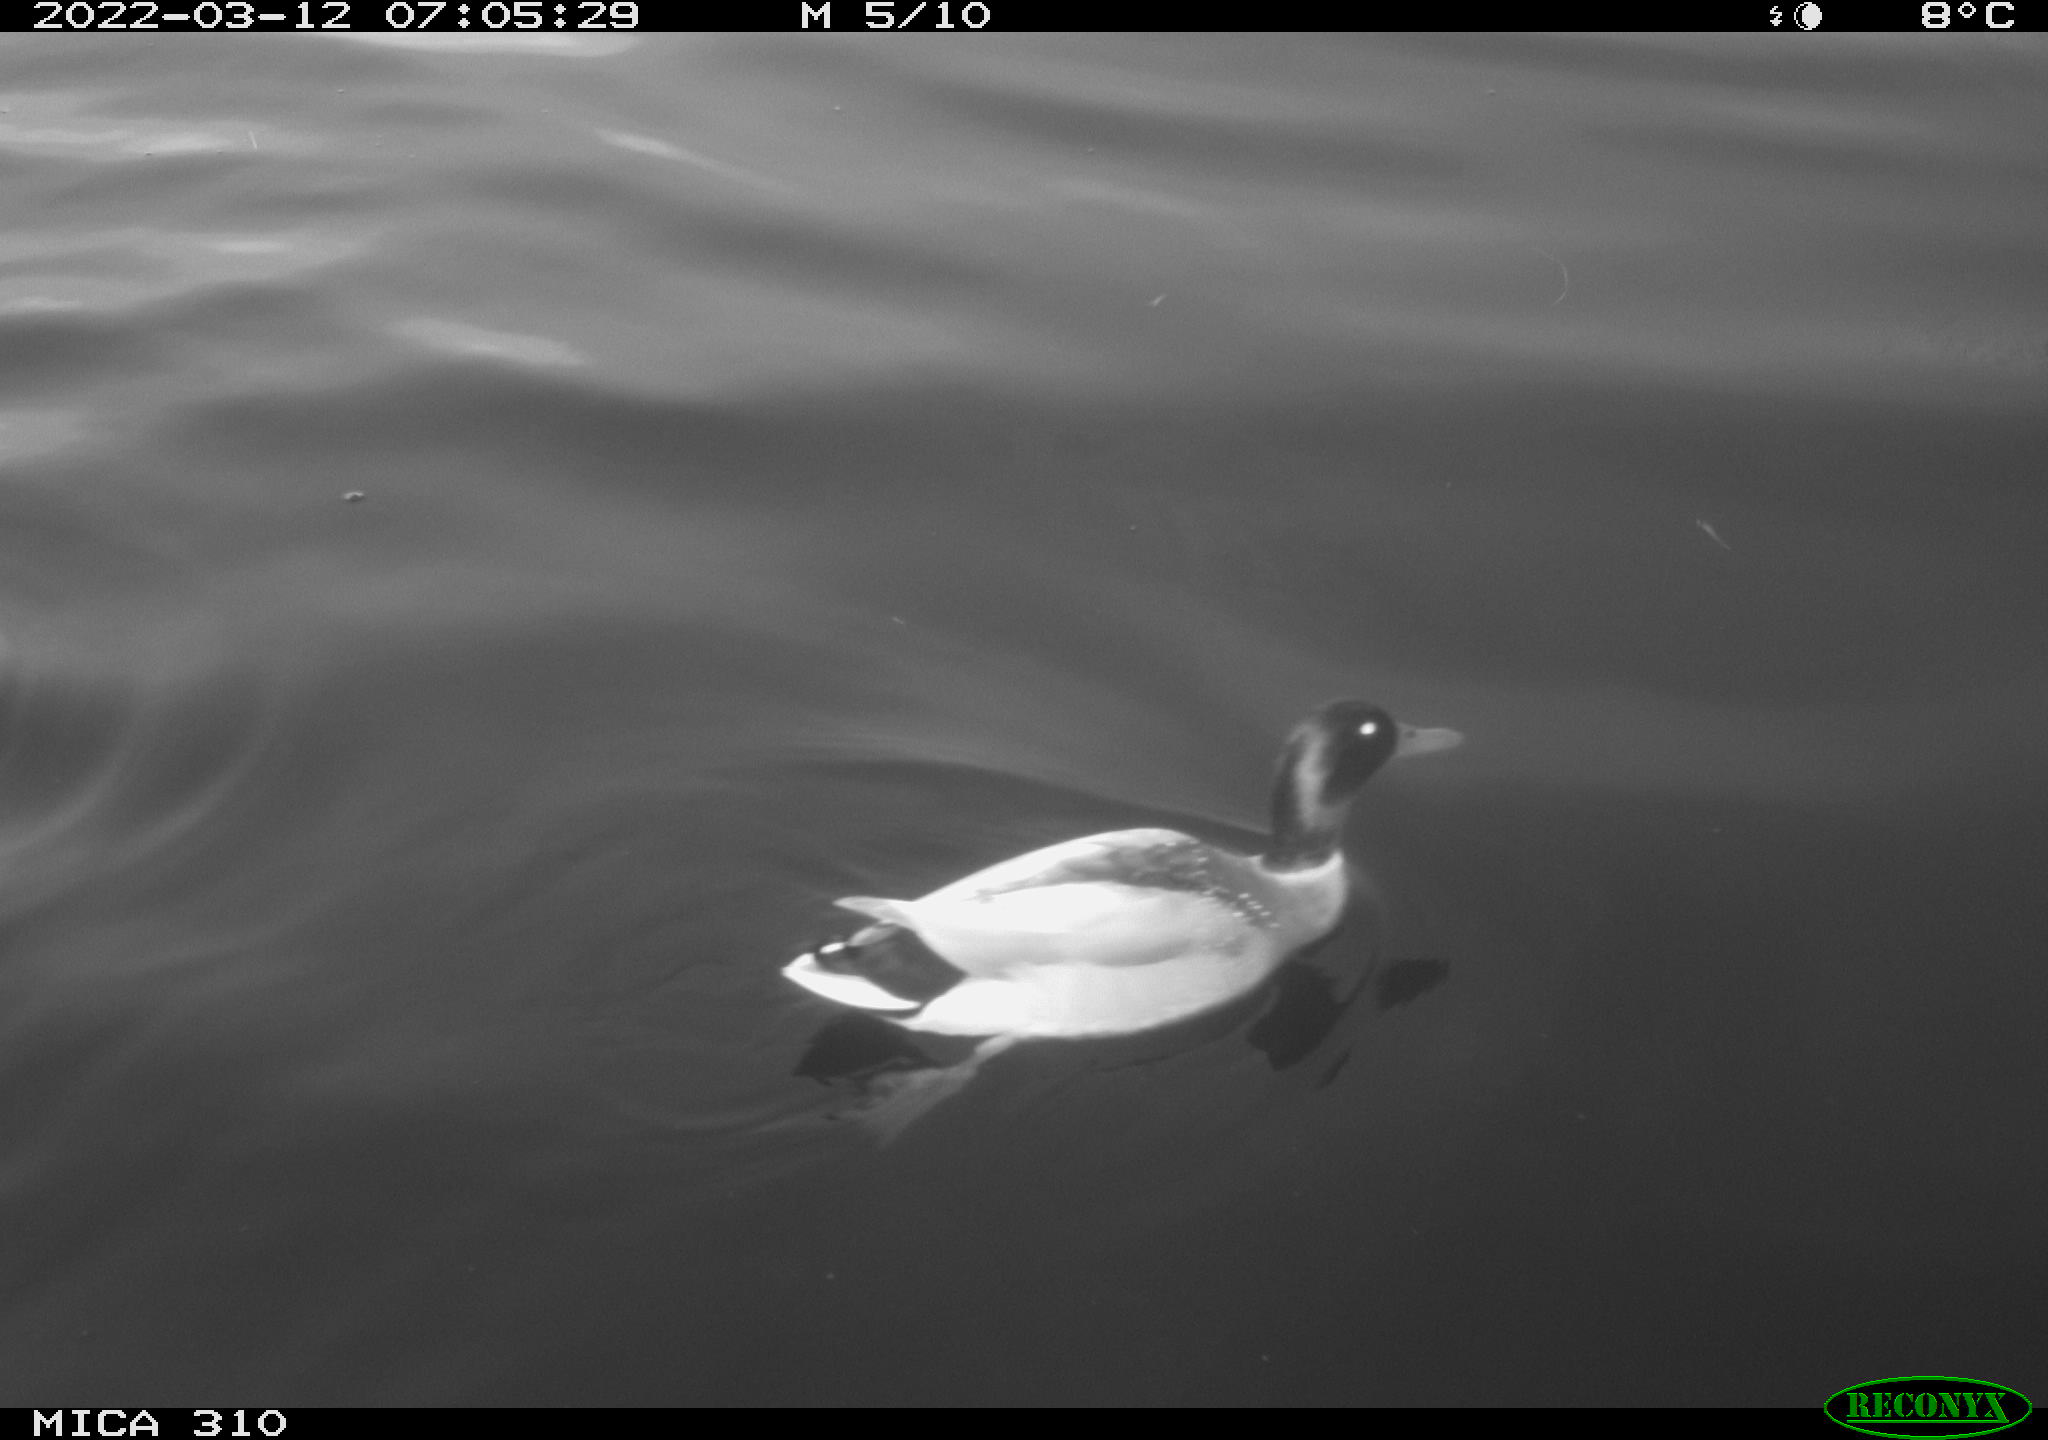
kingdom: Animalia
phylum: Chordata
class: Aves
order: Anseriformes
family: Anatidae
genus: Anas
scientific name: Anas platyrhynchos
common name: Mallard
